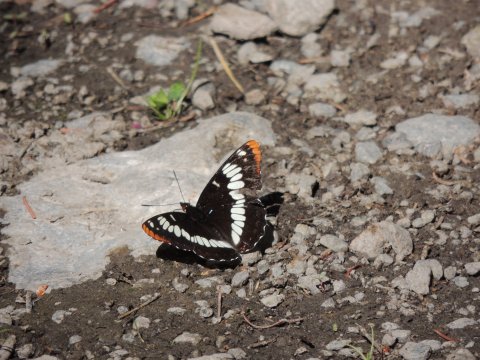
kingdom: Animalia
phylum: Arthropoda
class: Insecta
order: Lepidoptera
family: Nymphalidae
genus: Limenitis
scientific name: Limenitis lorquini
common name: Lorquin's Admiral
